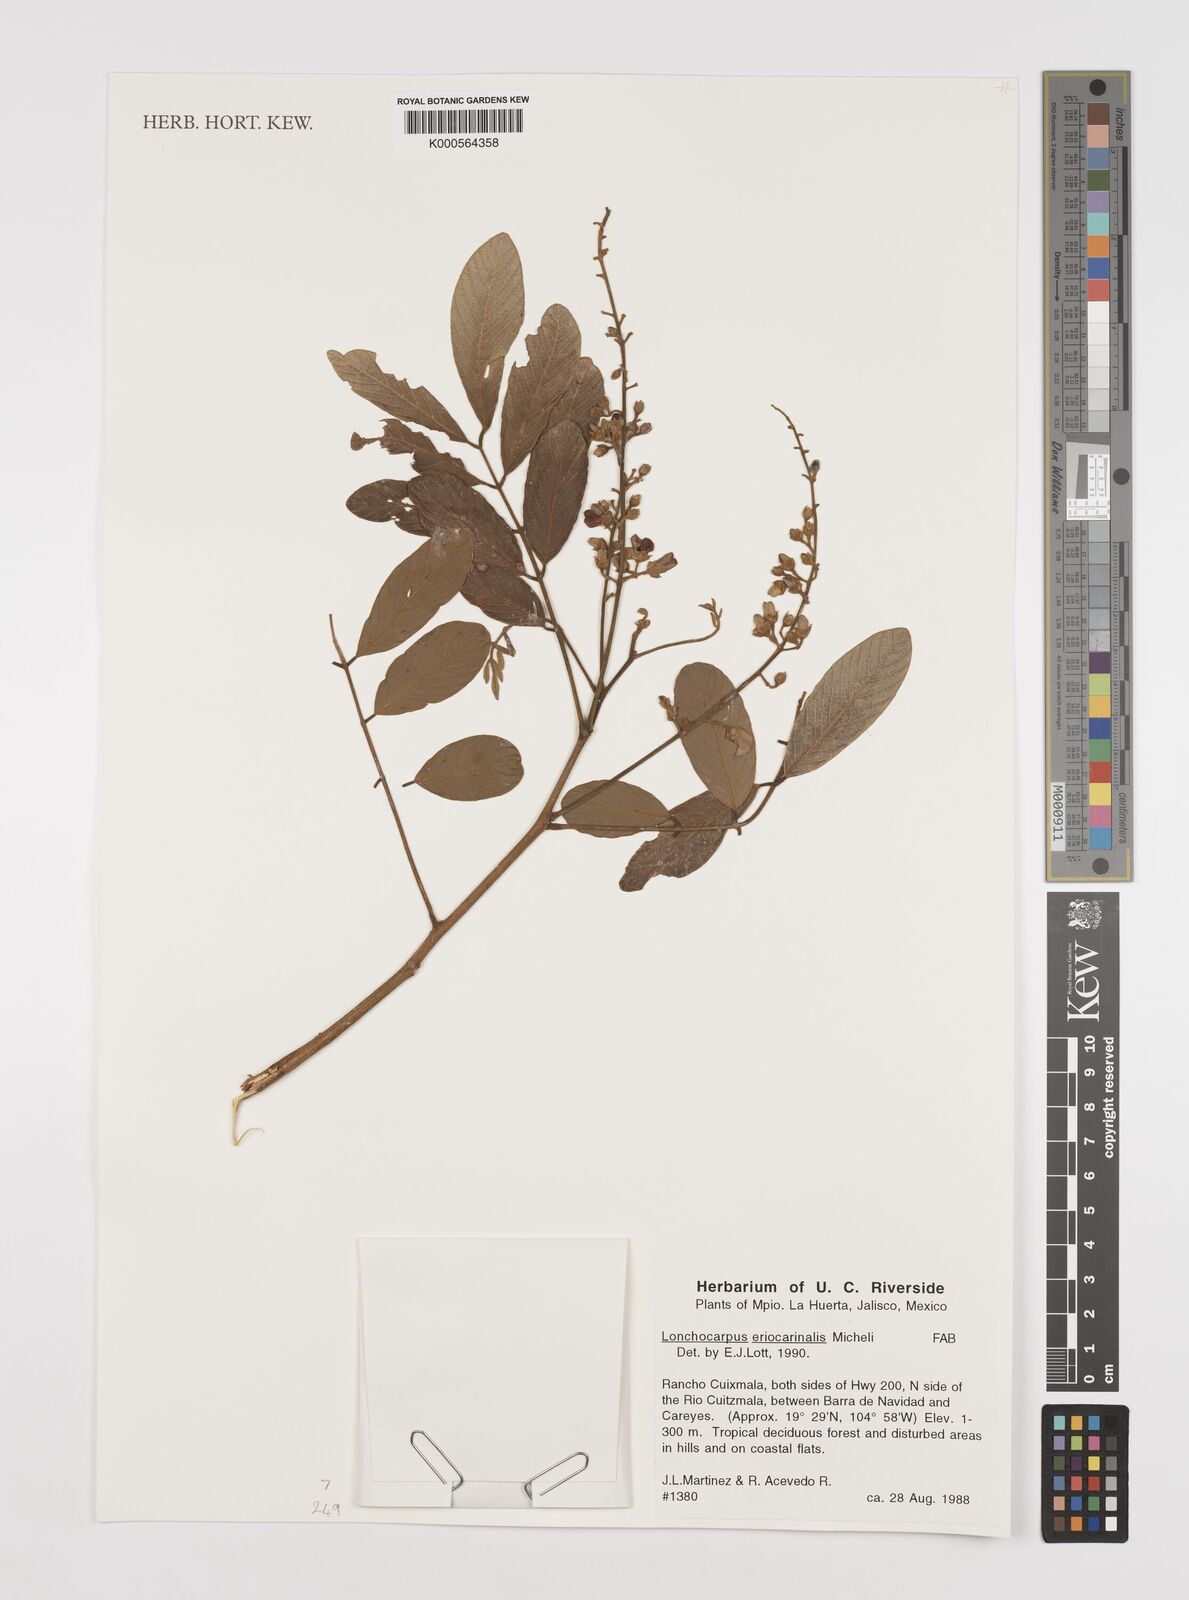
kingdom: Plantae
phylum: Tracheophyta
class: Magnoliopsida
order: Fabales
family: Fabaceae
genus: Lonchocarpus
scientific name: Lonchocarpus eriocarinalis
